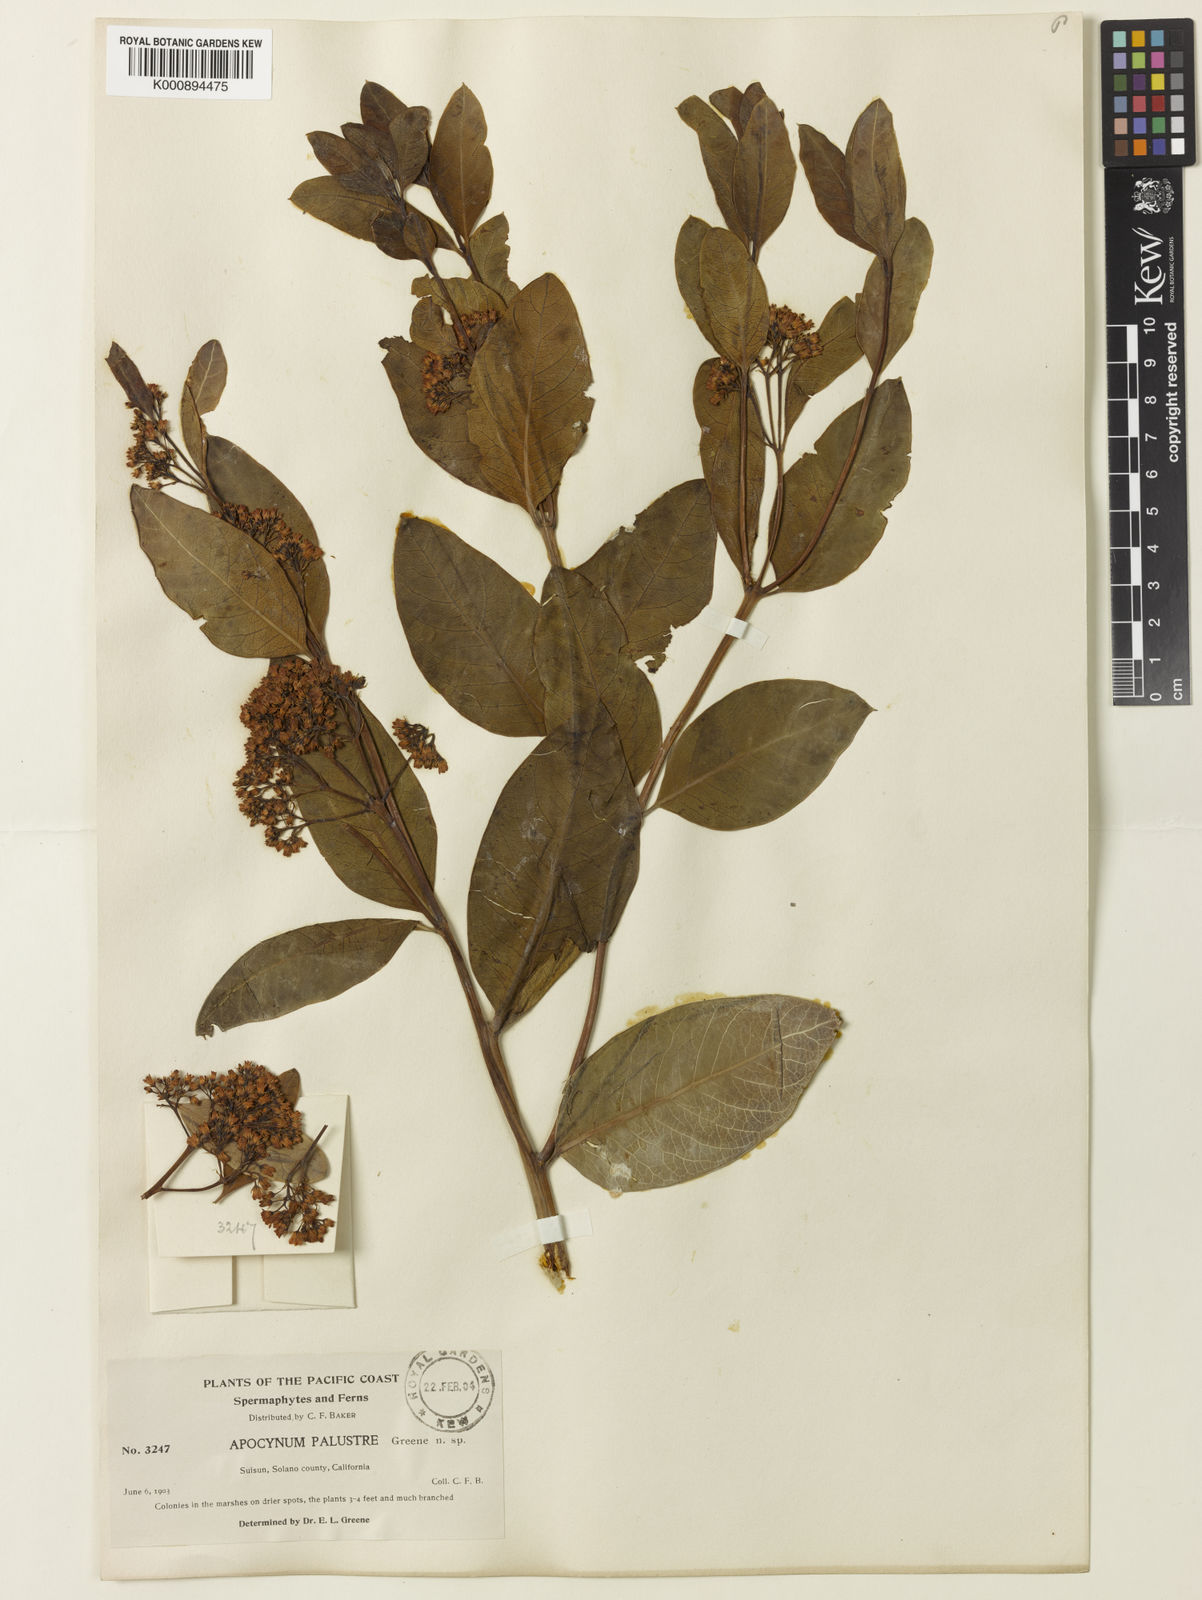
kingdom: Plantae
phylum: Tracheophyta
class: Magnoliopsida
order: Gentianales
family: Apocynaceae
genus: Apocynum
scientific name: Apocynum cannabinum
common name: Hemp dogbane
